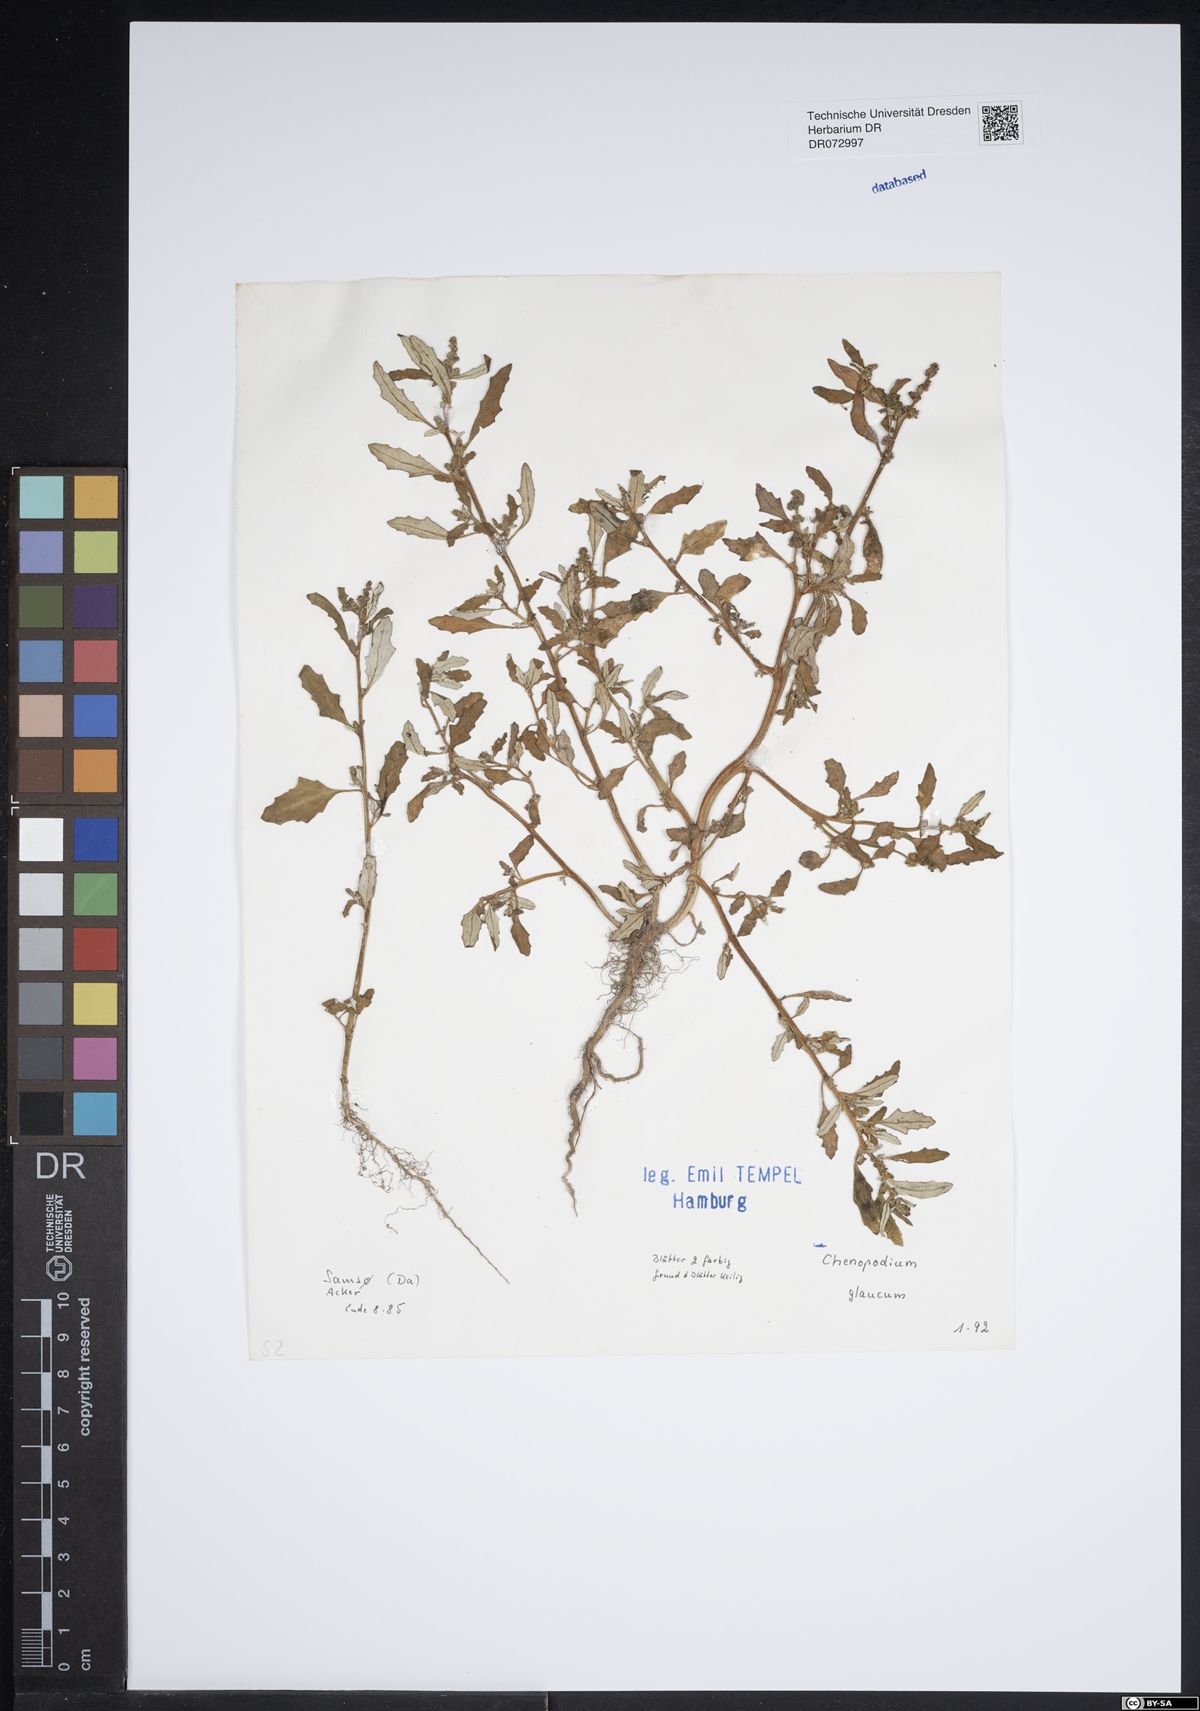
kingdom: Plantae
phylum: Tracheophyta
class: Magnoliopsida
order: Caryophyllales
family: Amaranthaceae
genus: Oxybasis
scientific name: Oxybasis glauca
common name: Glaucous goosefoot
